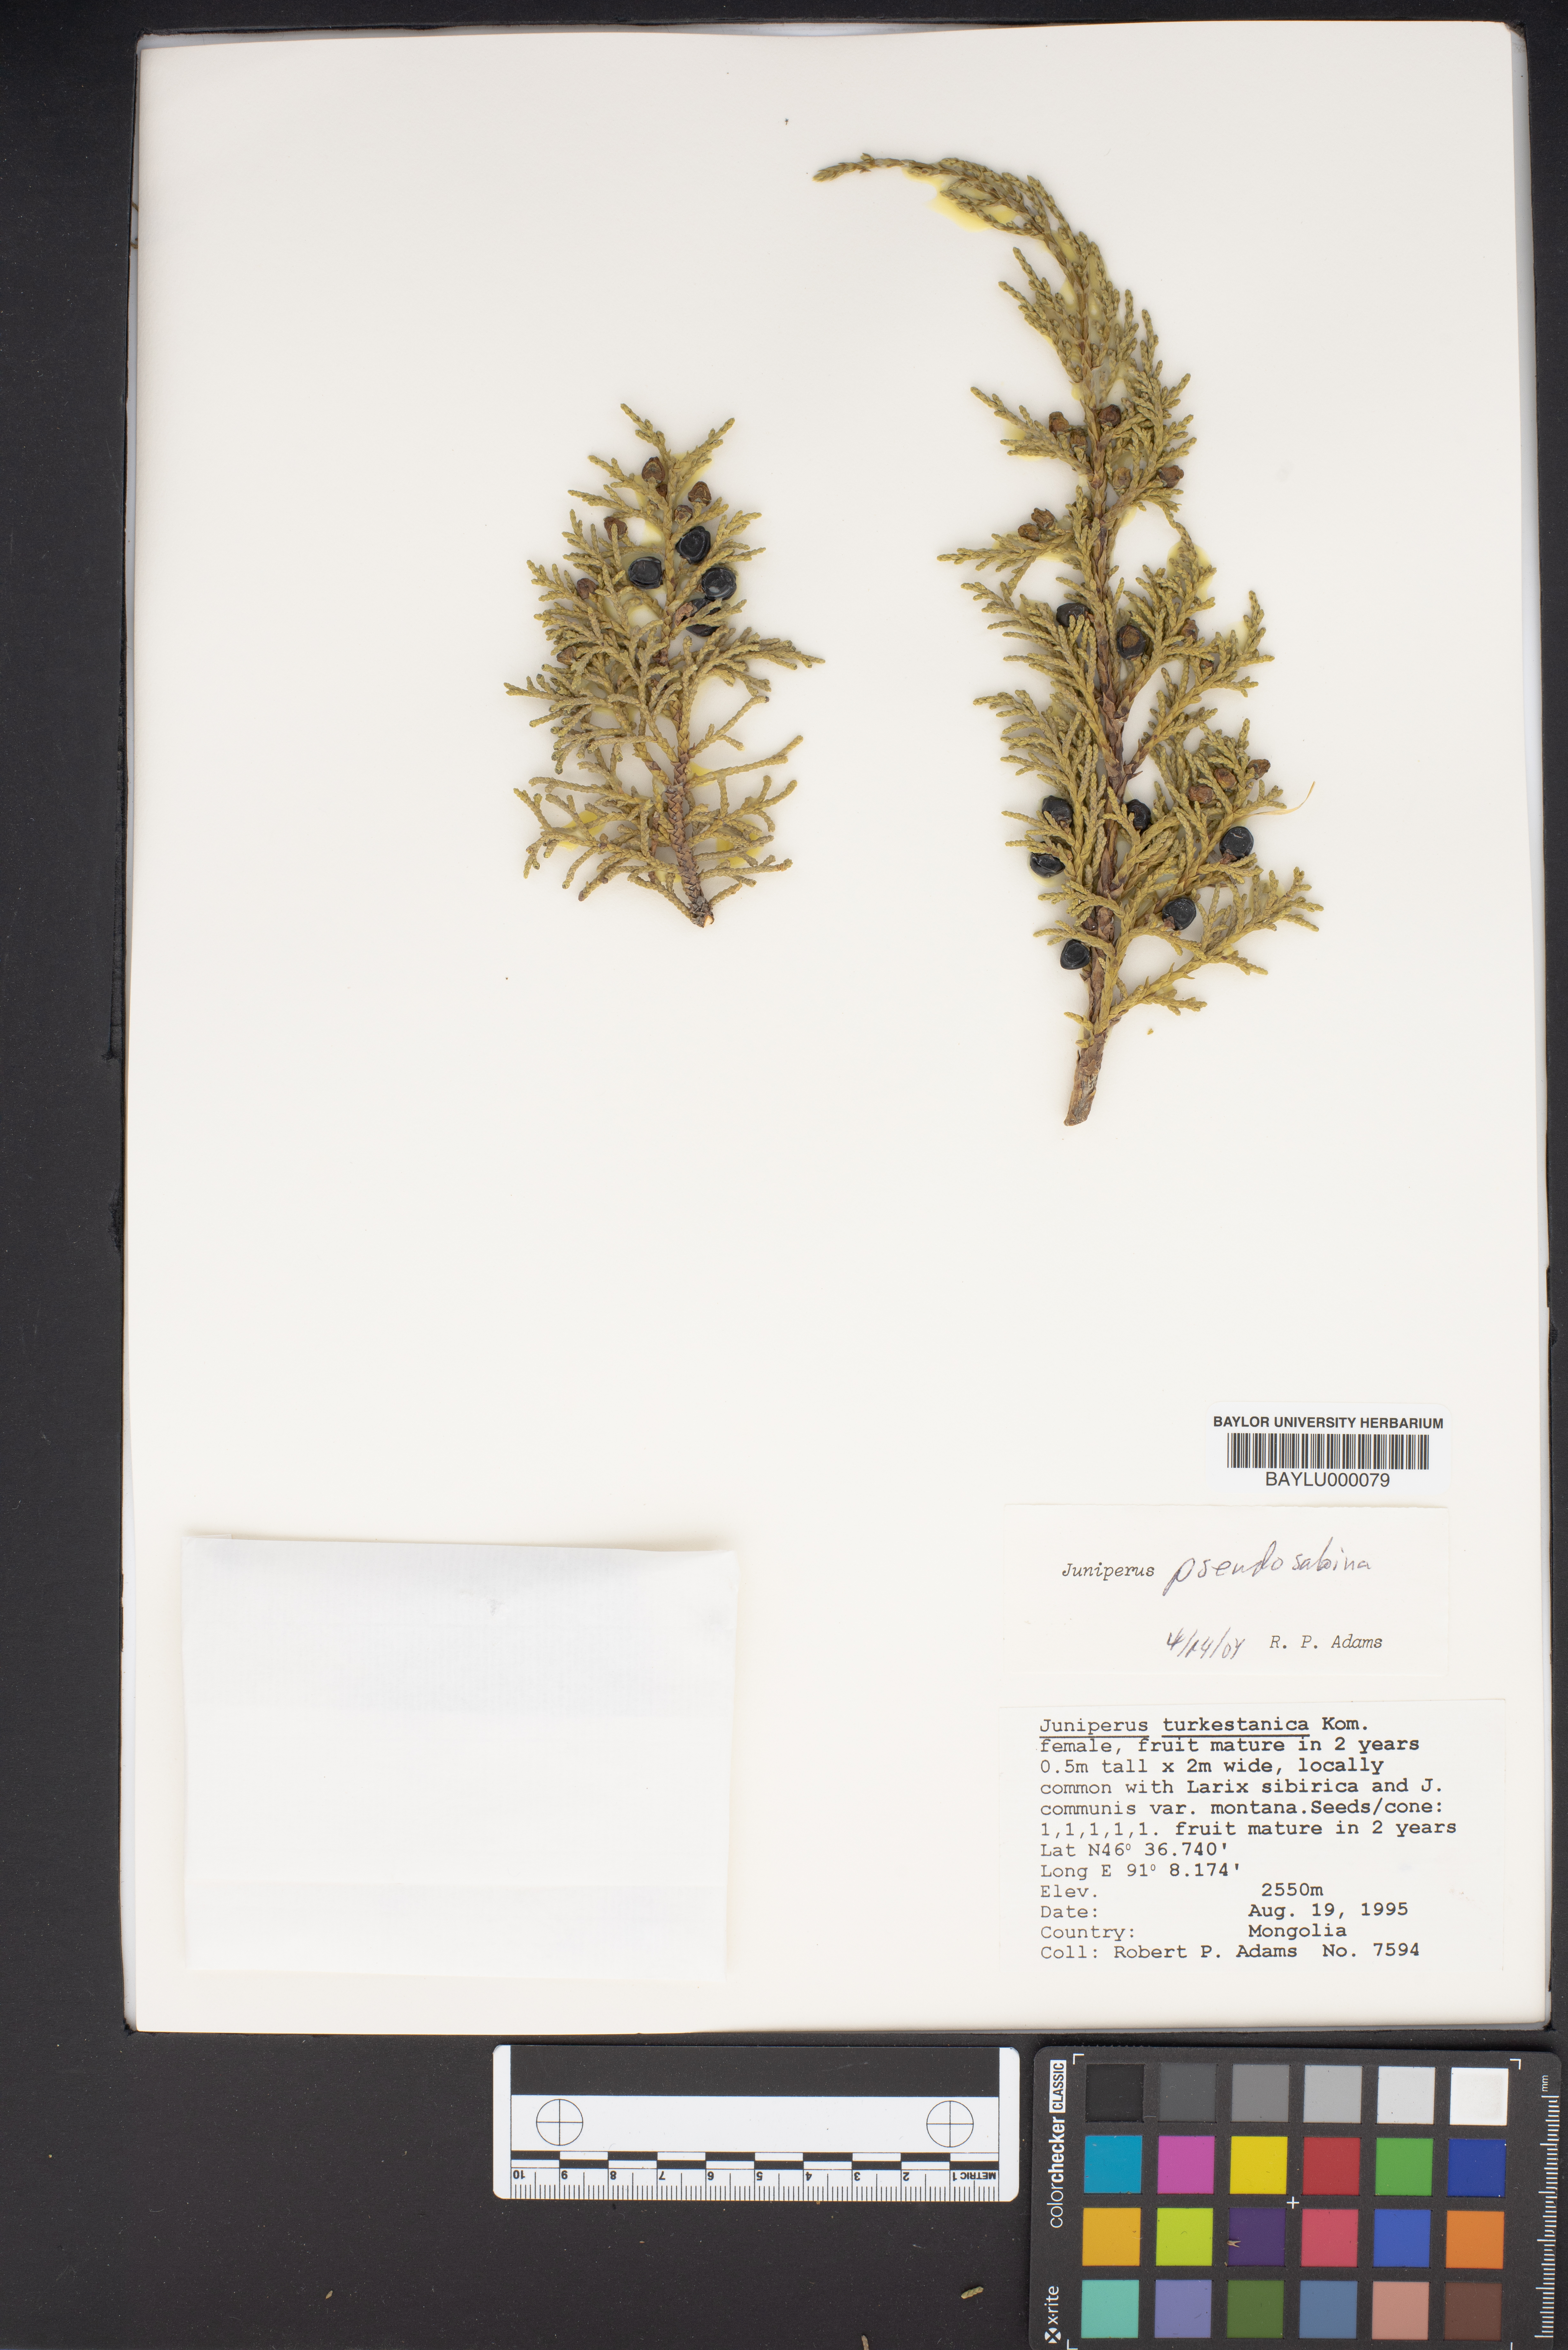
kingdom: Plantae
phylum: Tracheophyta
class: Pinopsida
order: Pinales
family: Cupressaceae
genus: Juniperus
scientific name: Juniperus pseudosabina
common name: Turkestan juniper
